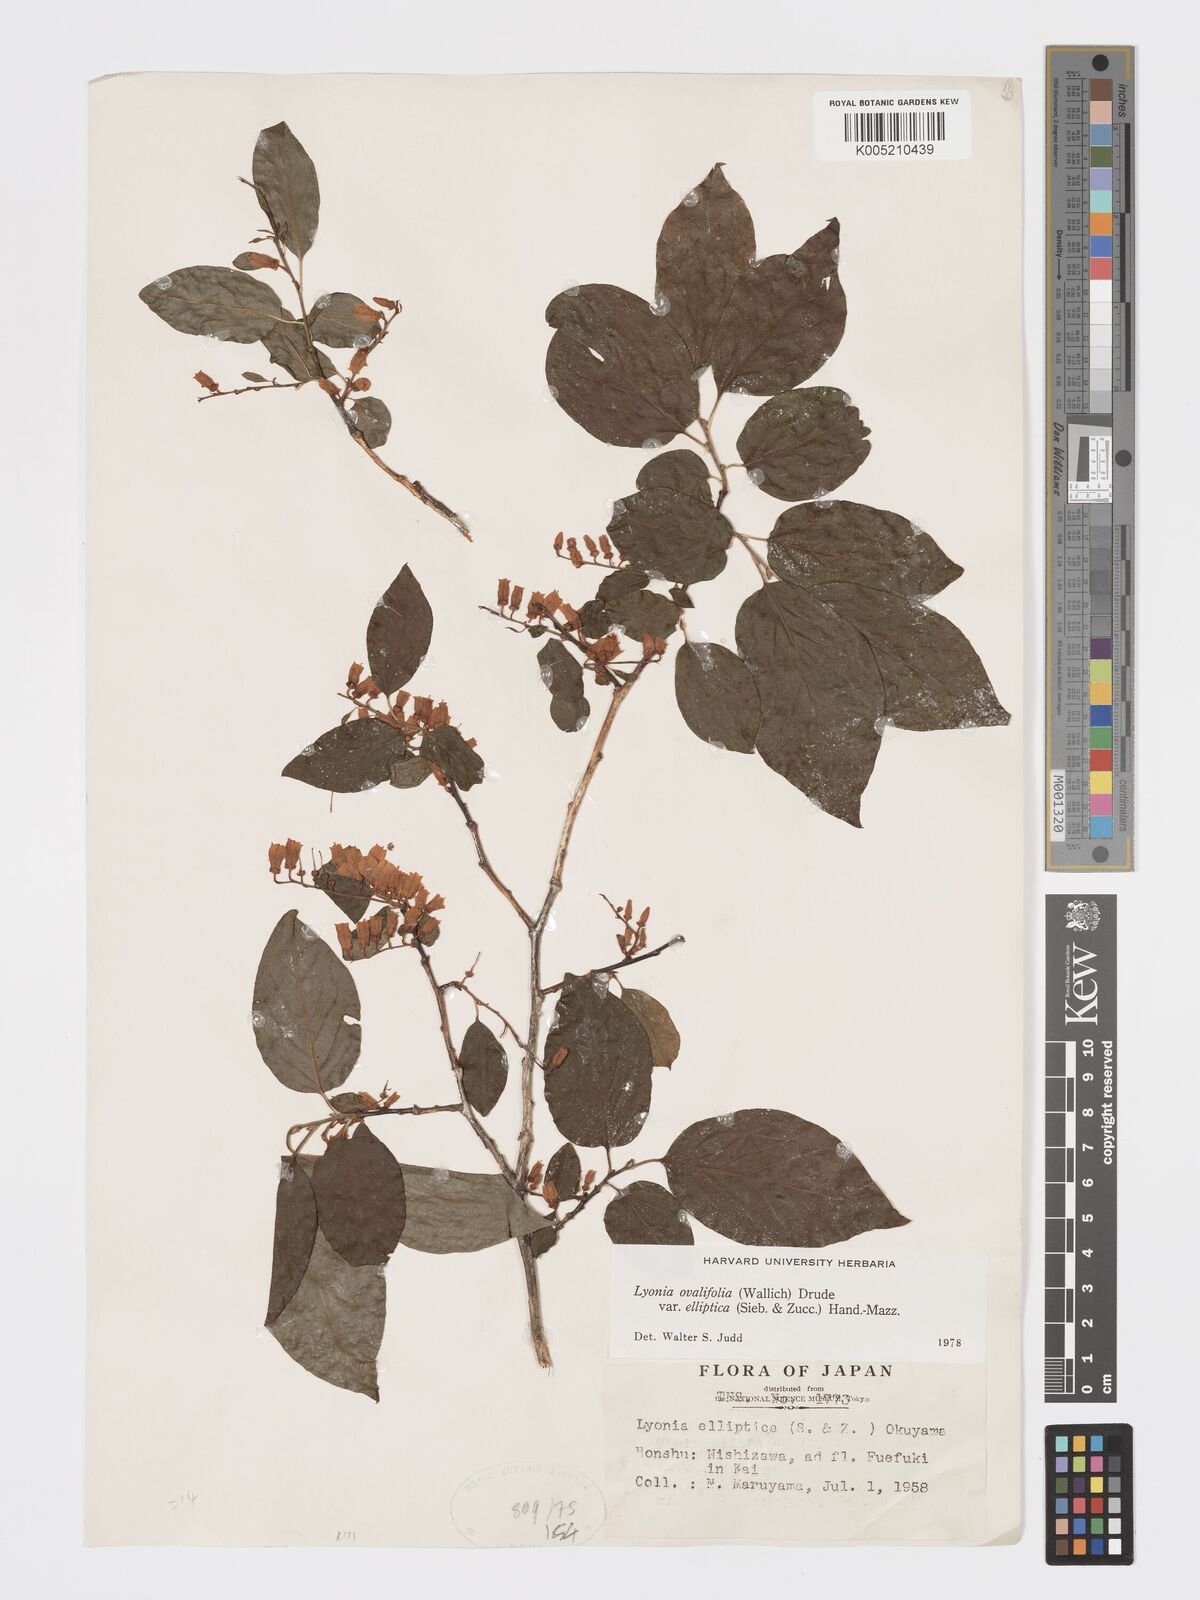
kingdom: Plantae
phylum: Tracheophyta
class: Magnoliopsida
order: Ericales
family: Ericaceae
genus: Lyonia
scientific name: Lyonia elliptica
